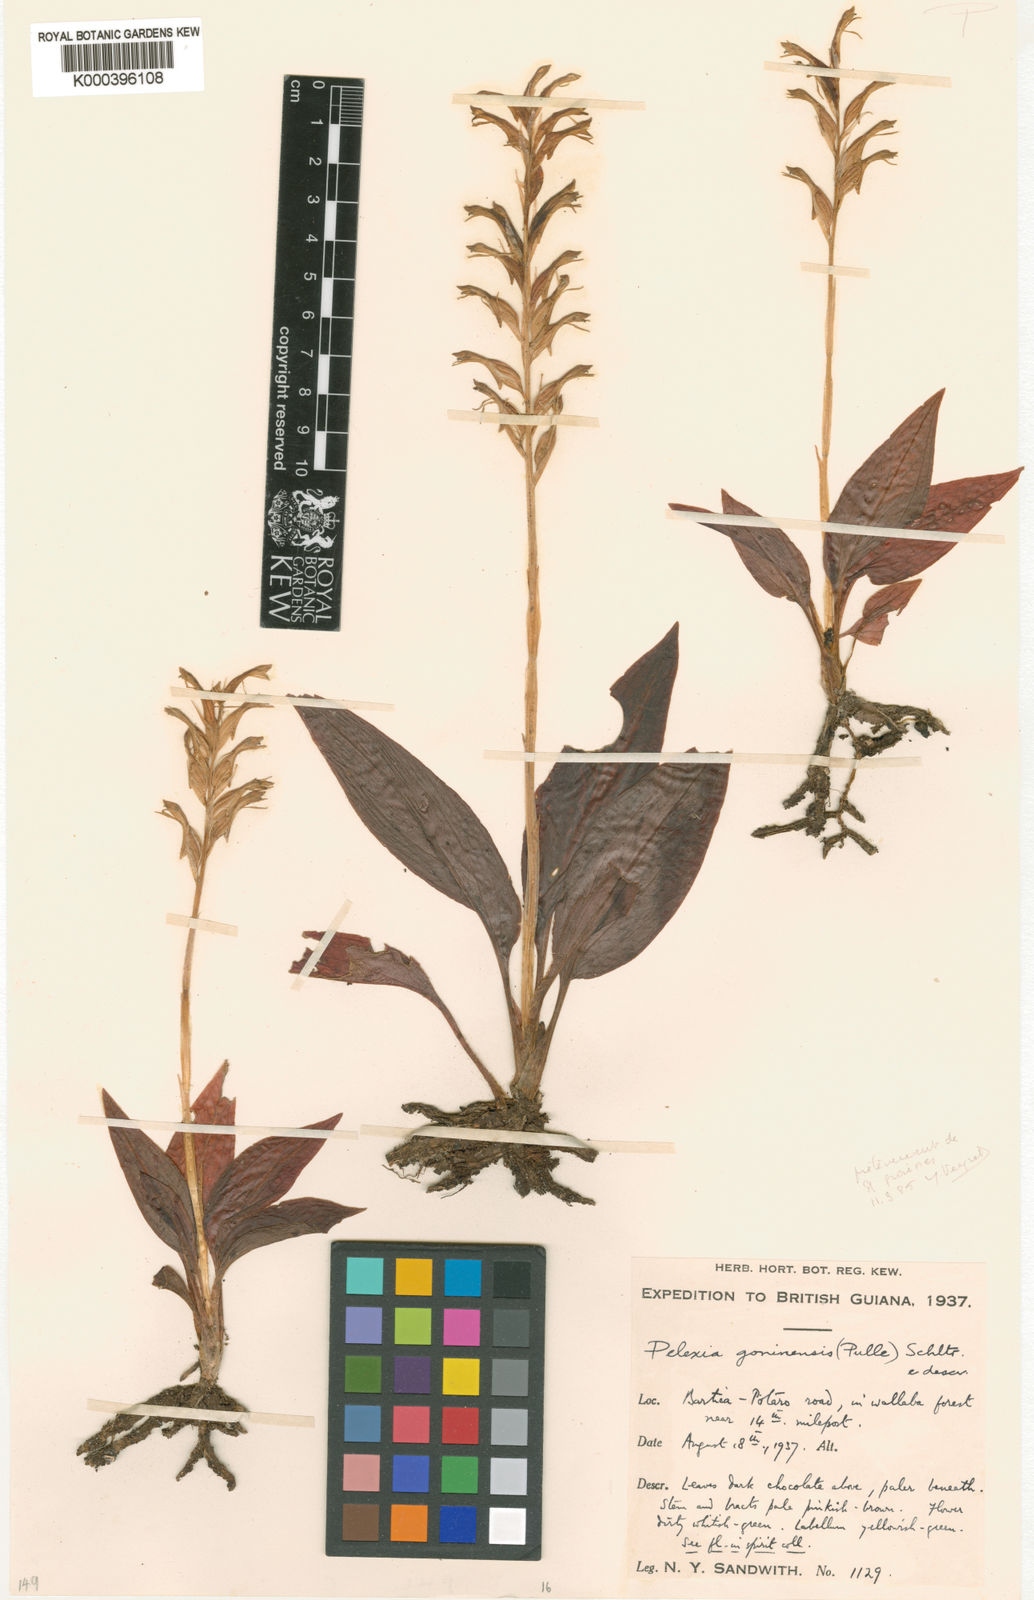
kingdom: Plantae
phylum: Tracheophyta
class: Liliopsida
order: Asparagales
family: Orchidaceae
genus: Pelexia
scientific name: Pelexia goninensis
